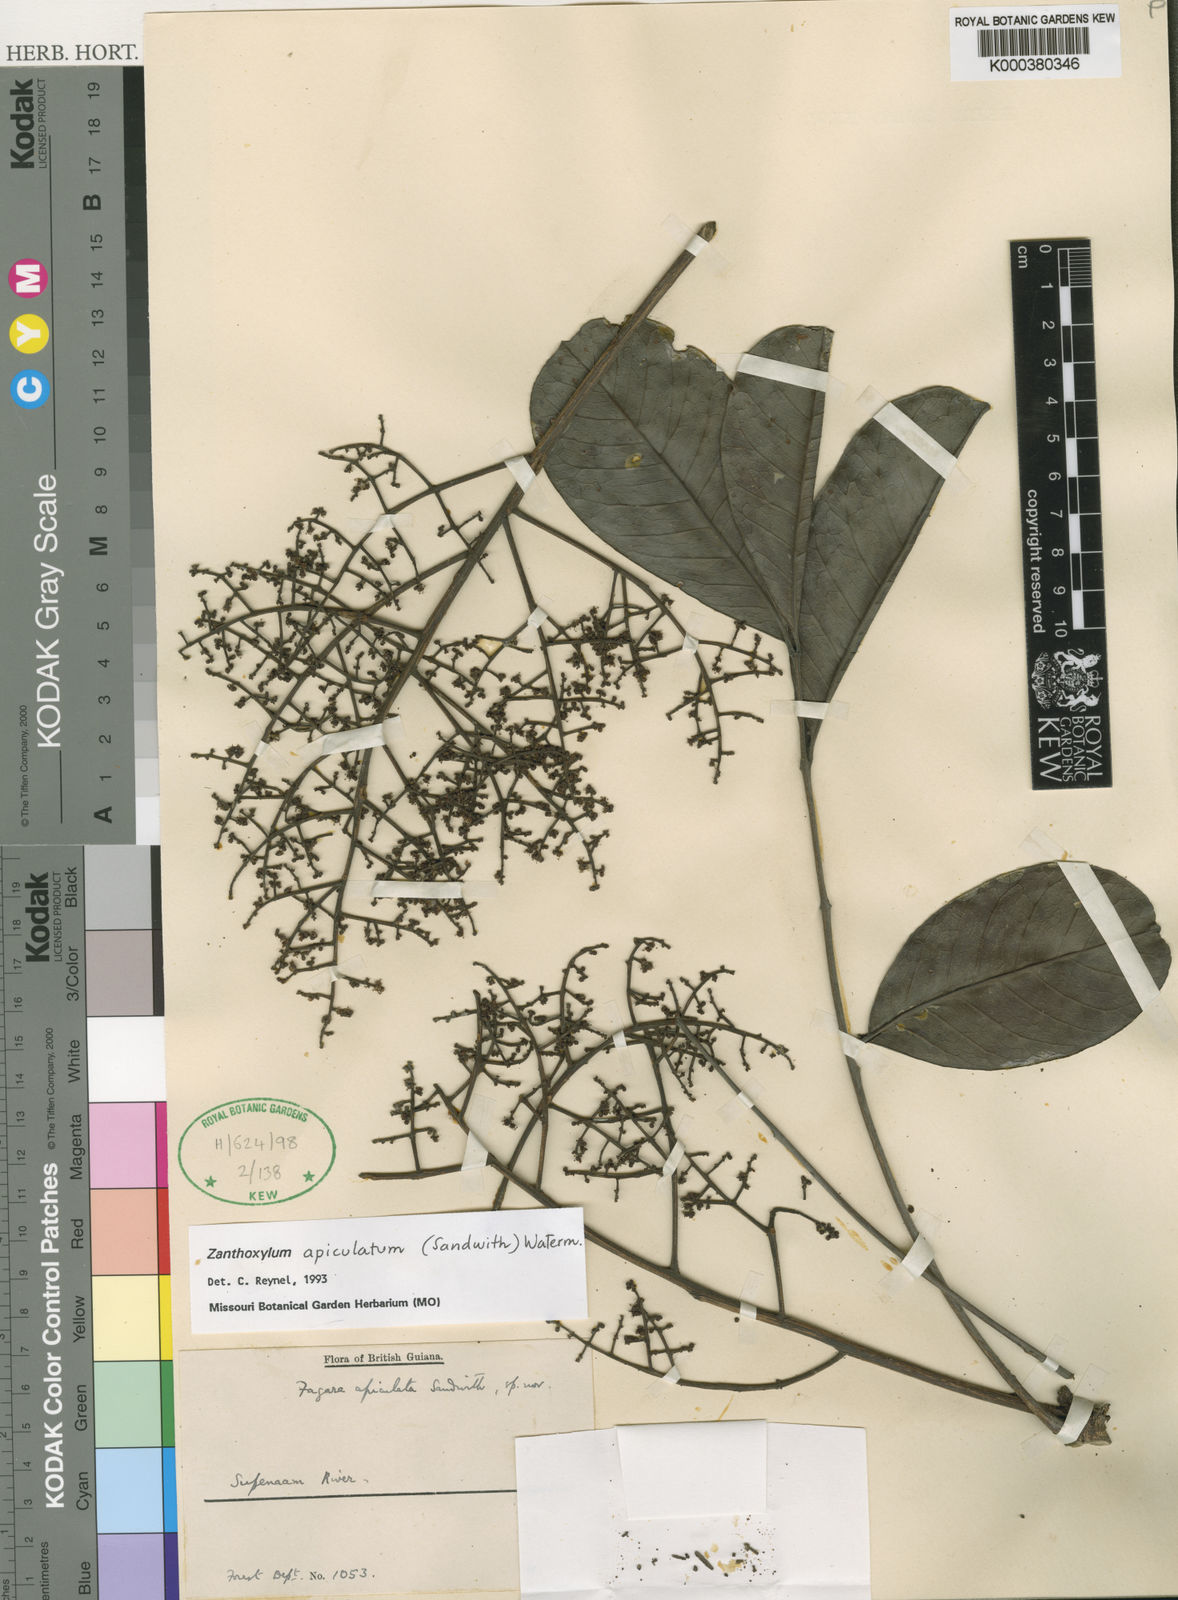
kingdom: Plantae
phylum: Tracheophyta
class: Magnoliopsida
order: Sapindales
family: Rutaceae
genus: Zanthoxylum
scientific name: Zanthoxylum apiculatum
